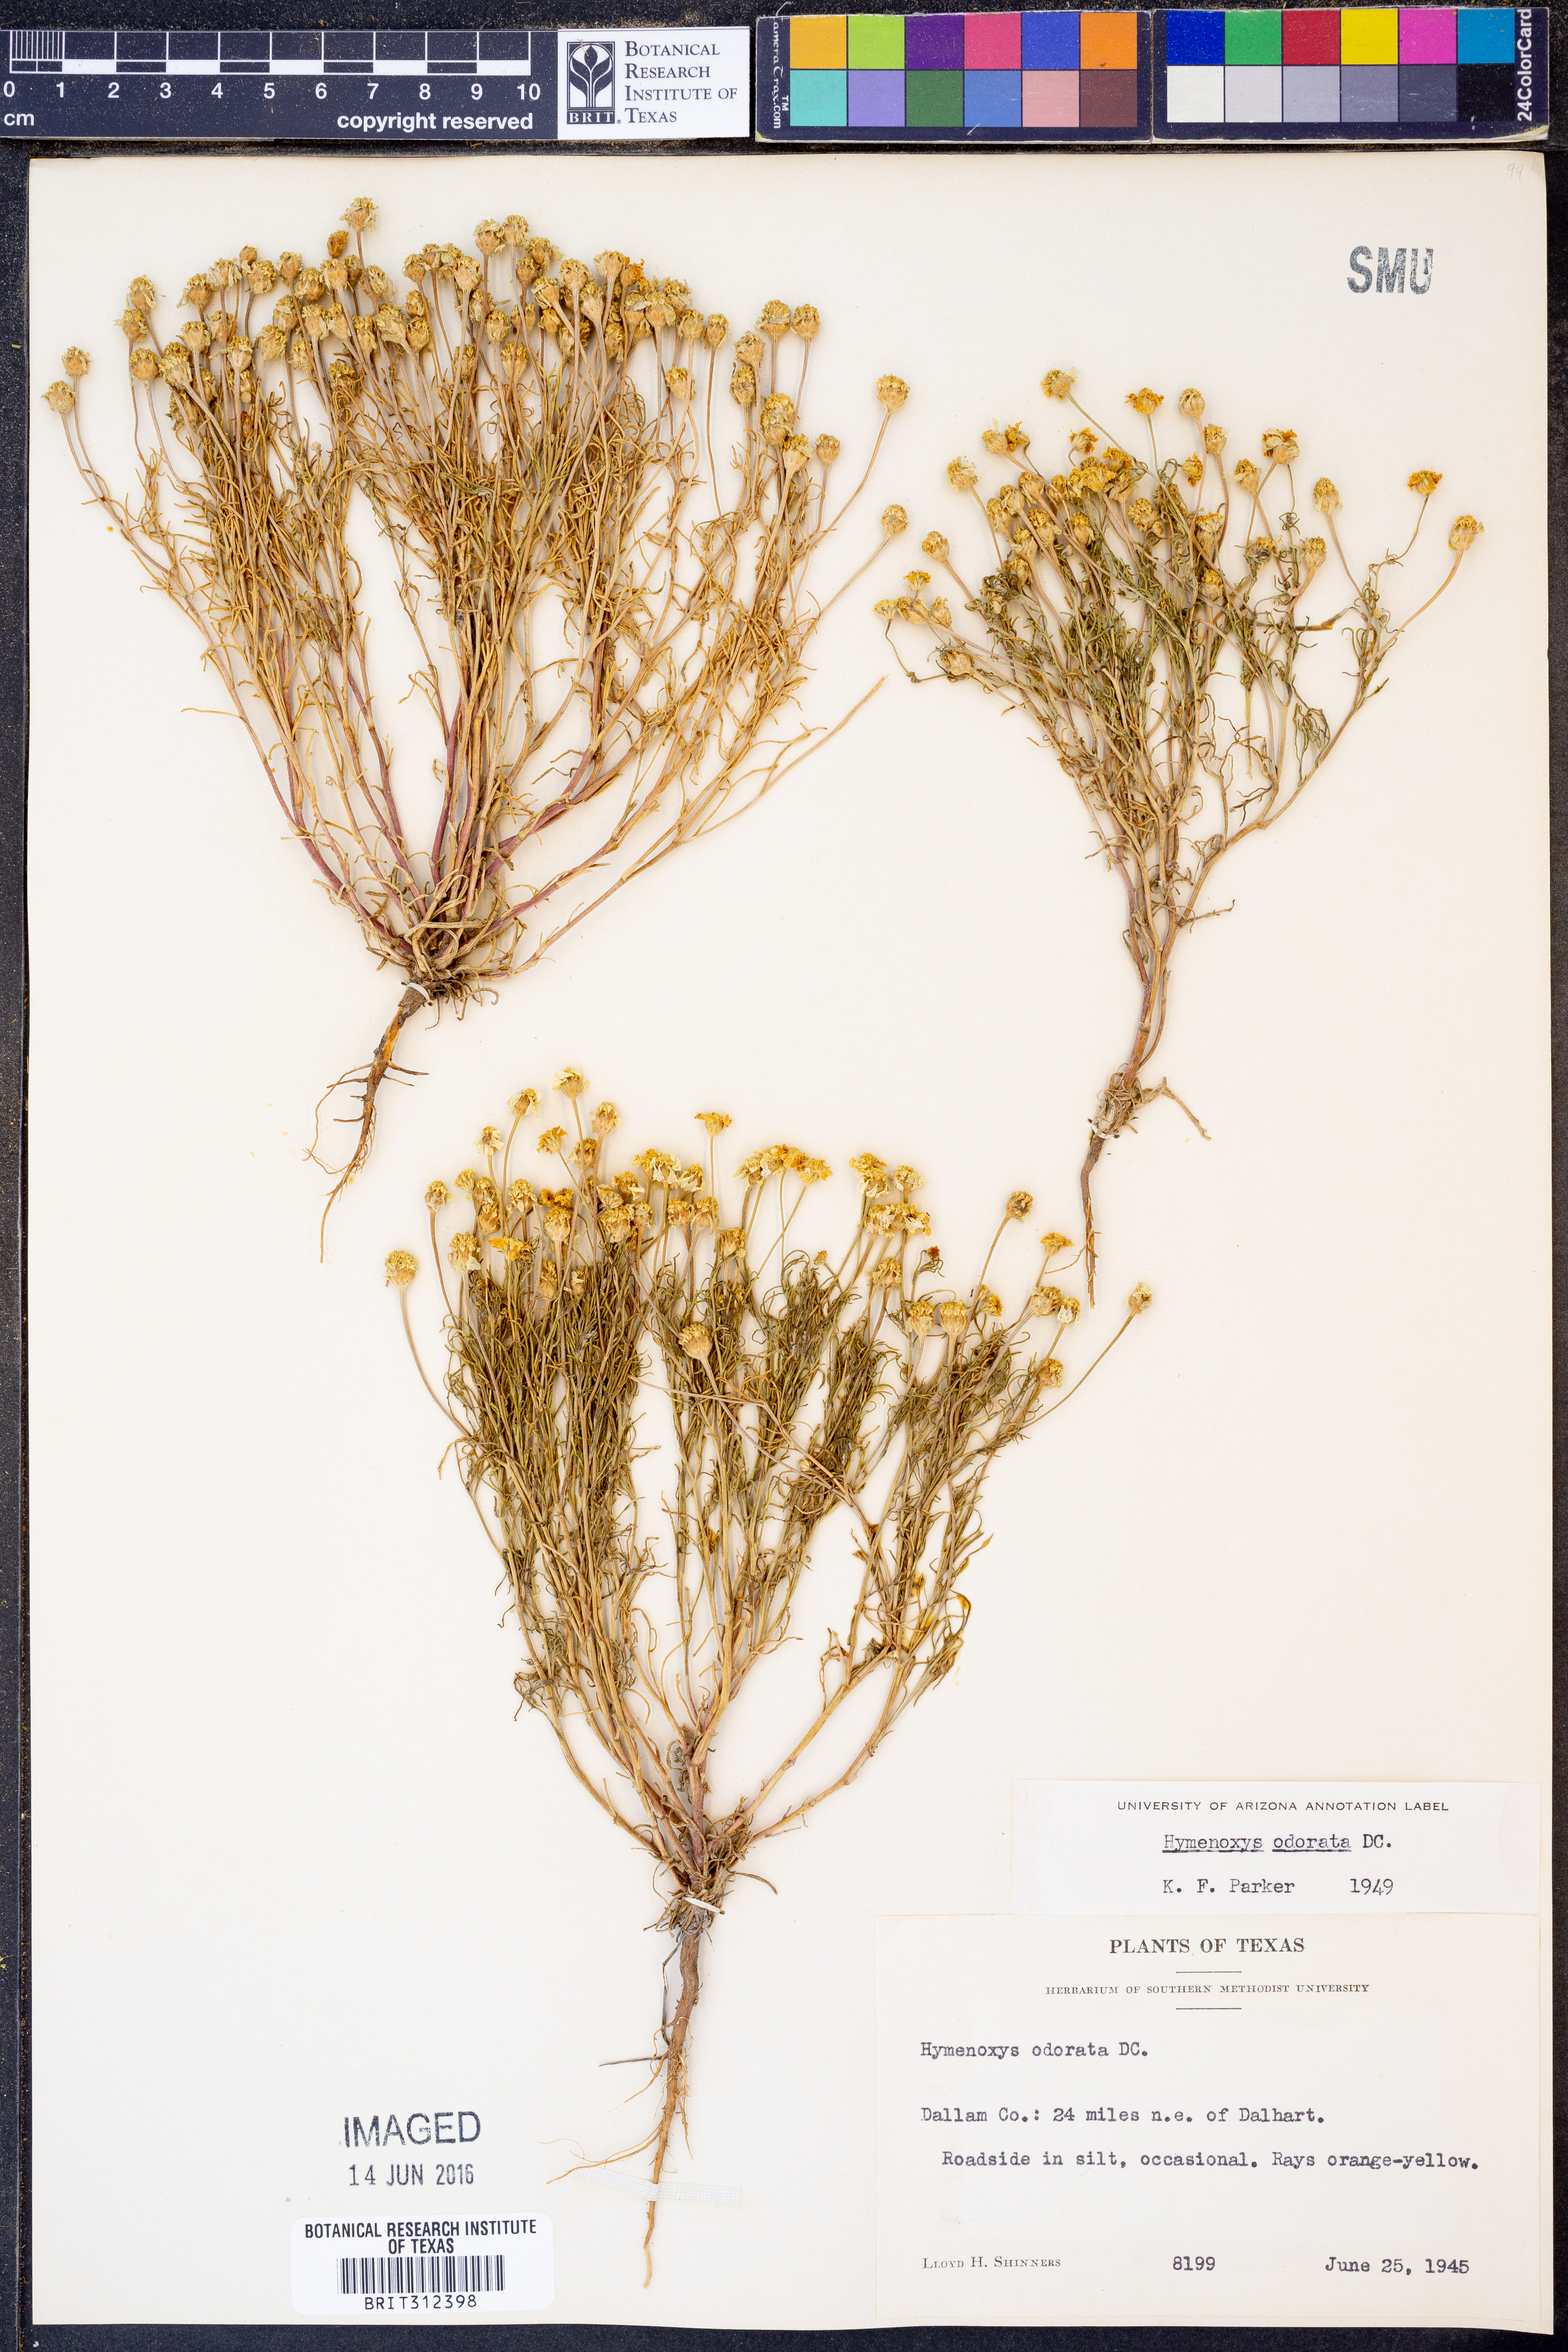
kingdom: Plantae
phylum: Tracheophyta
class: Magnoliopsida
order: Asterales
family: Asteraceae
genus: Hymenoxys
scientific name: Hymenoxys odorata
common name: Bitter rubberweed
